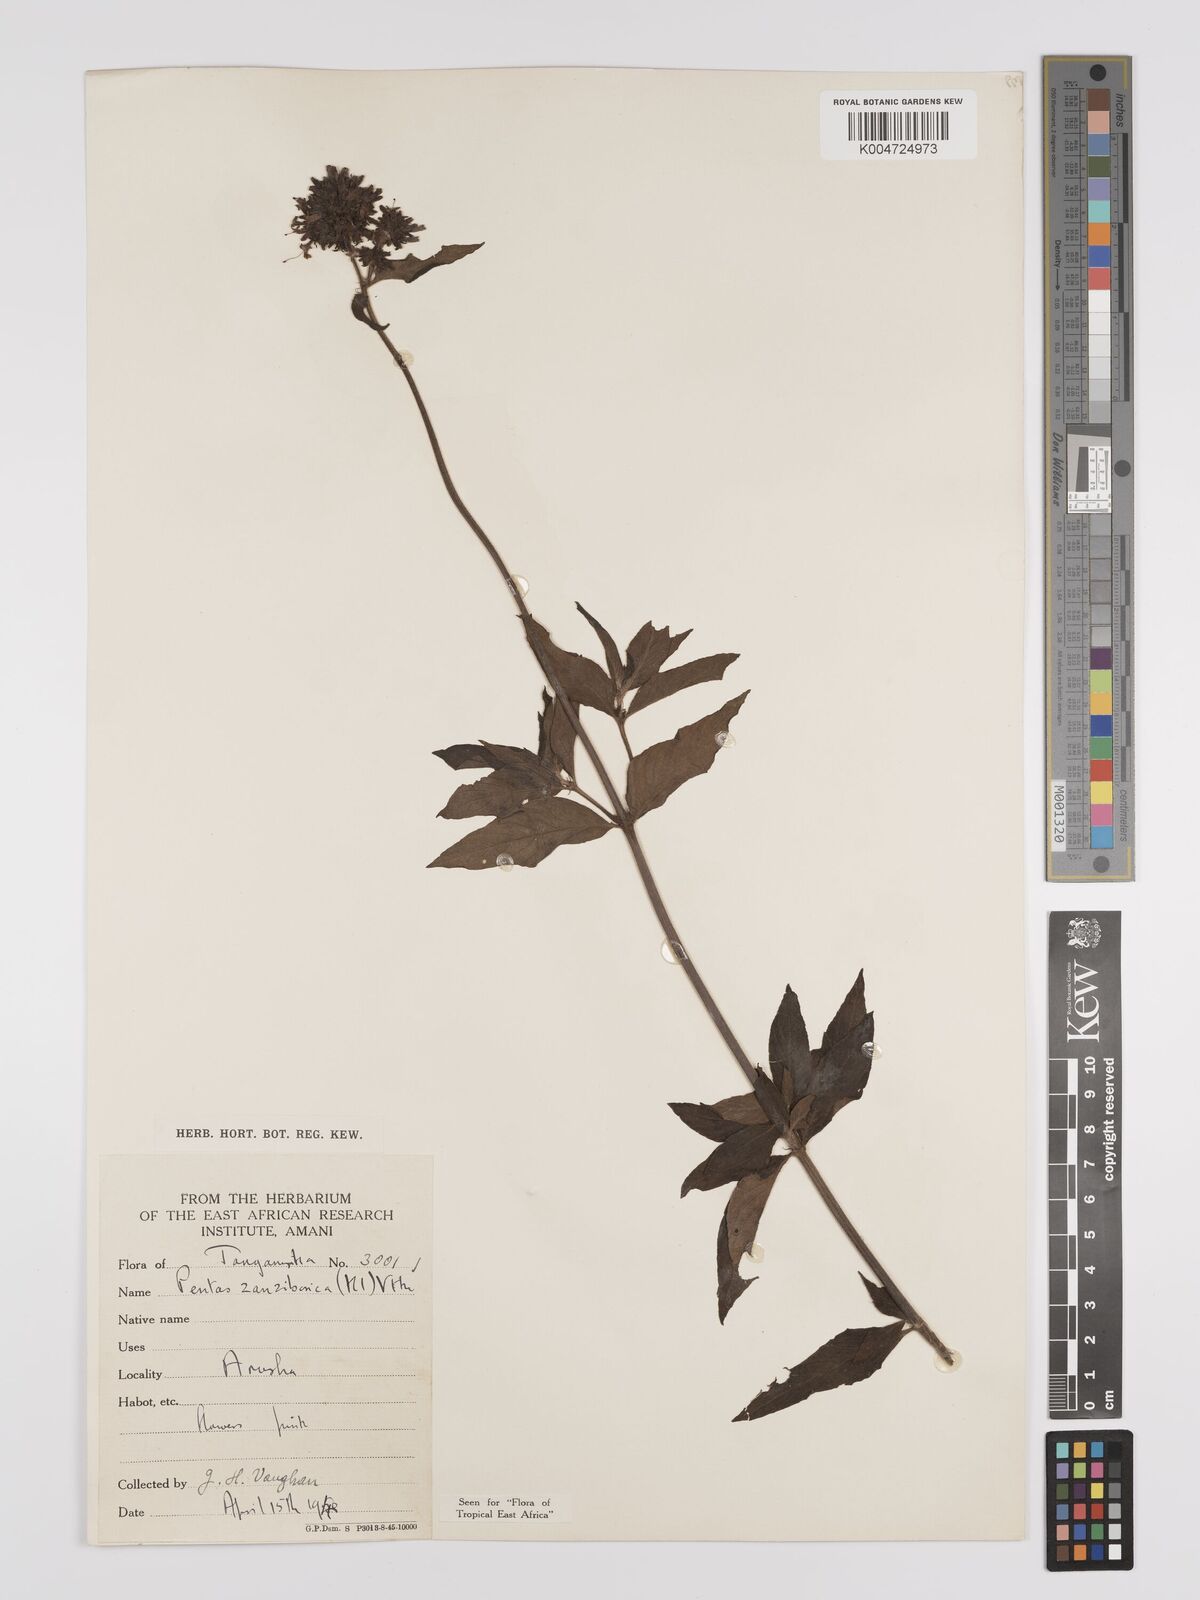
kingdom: Plantae
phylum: Tracheophyta
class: Magnoliopsida
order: Gentianales
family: Rubiaceae
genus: Pentas
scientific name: Pentas zanzibarica
